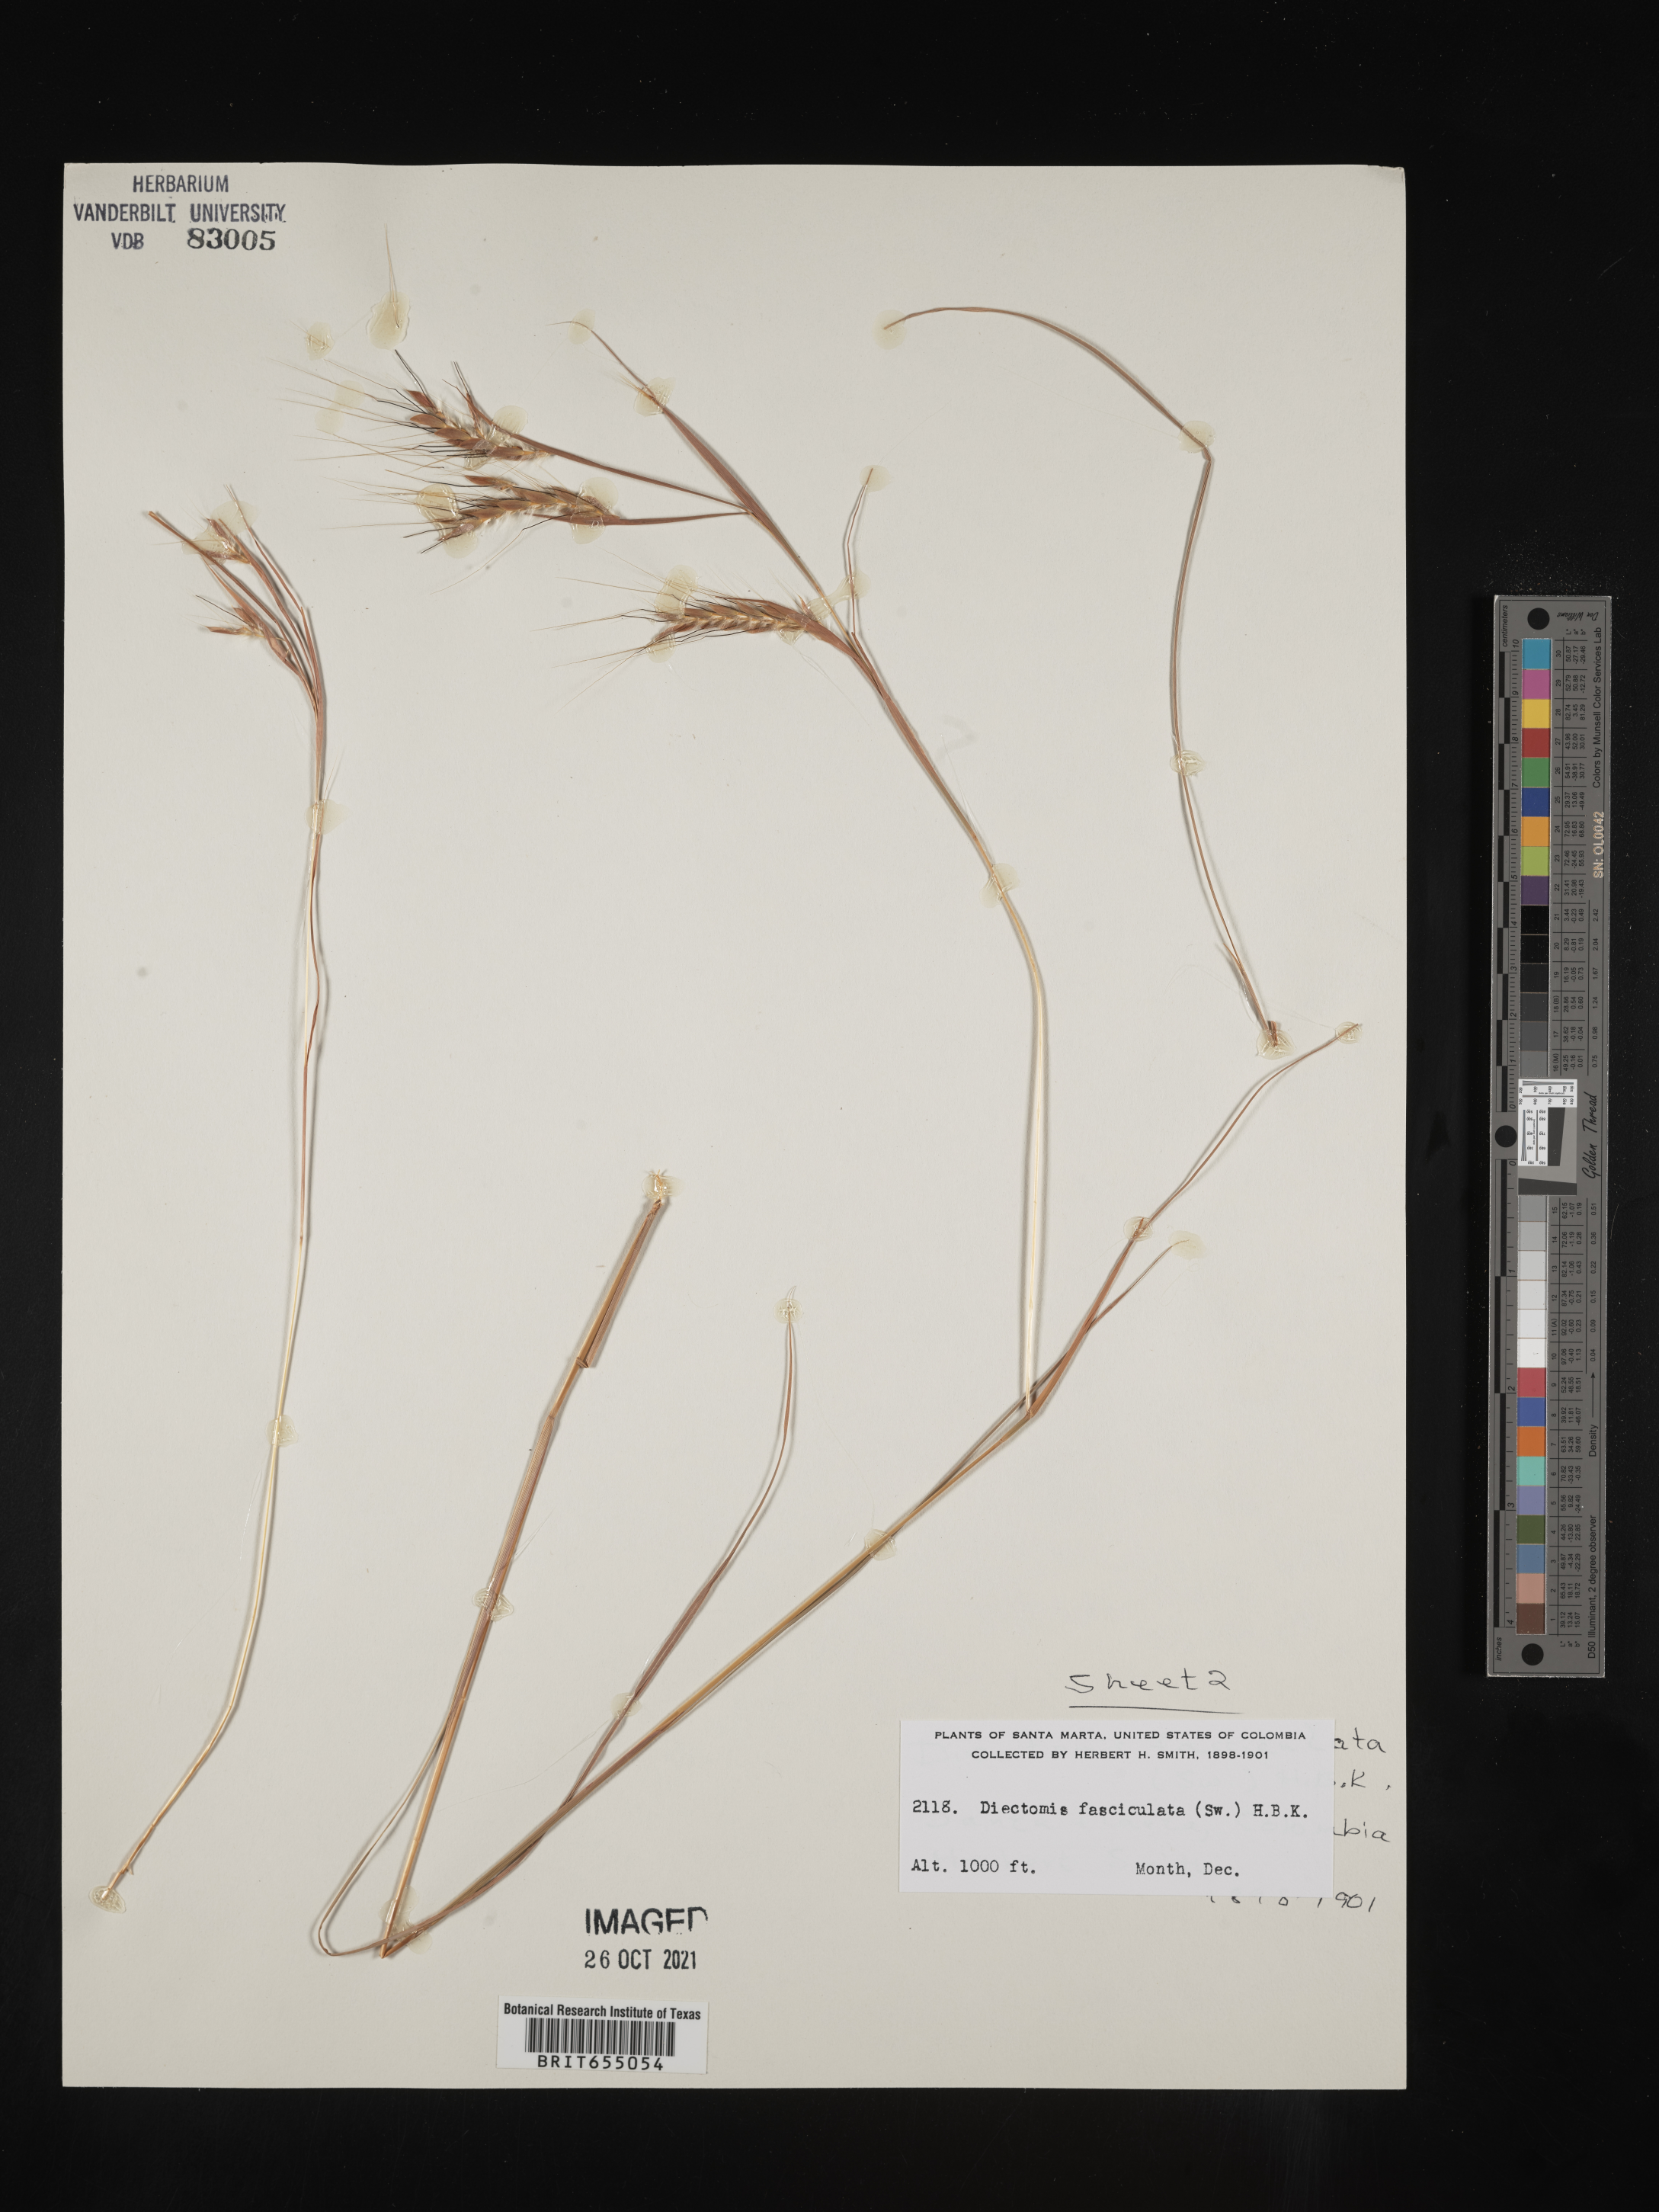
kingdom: Plantae
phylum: Tracheophyta
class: Liliopsida
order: Poales
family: Poaceae
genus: Diectomis
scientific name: Diectomis
